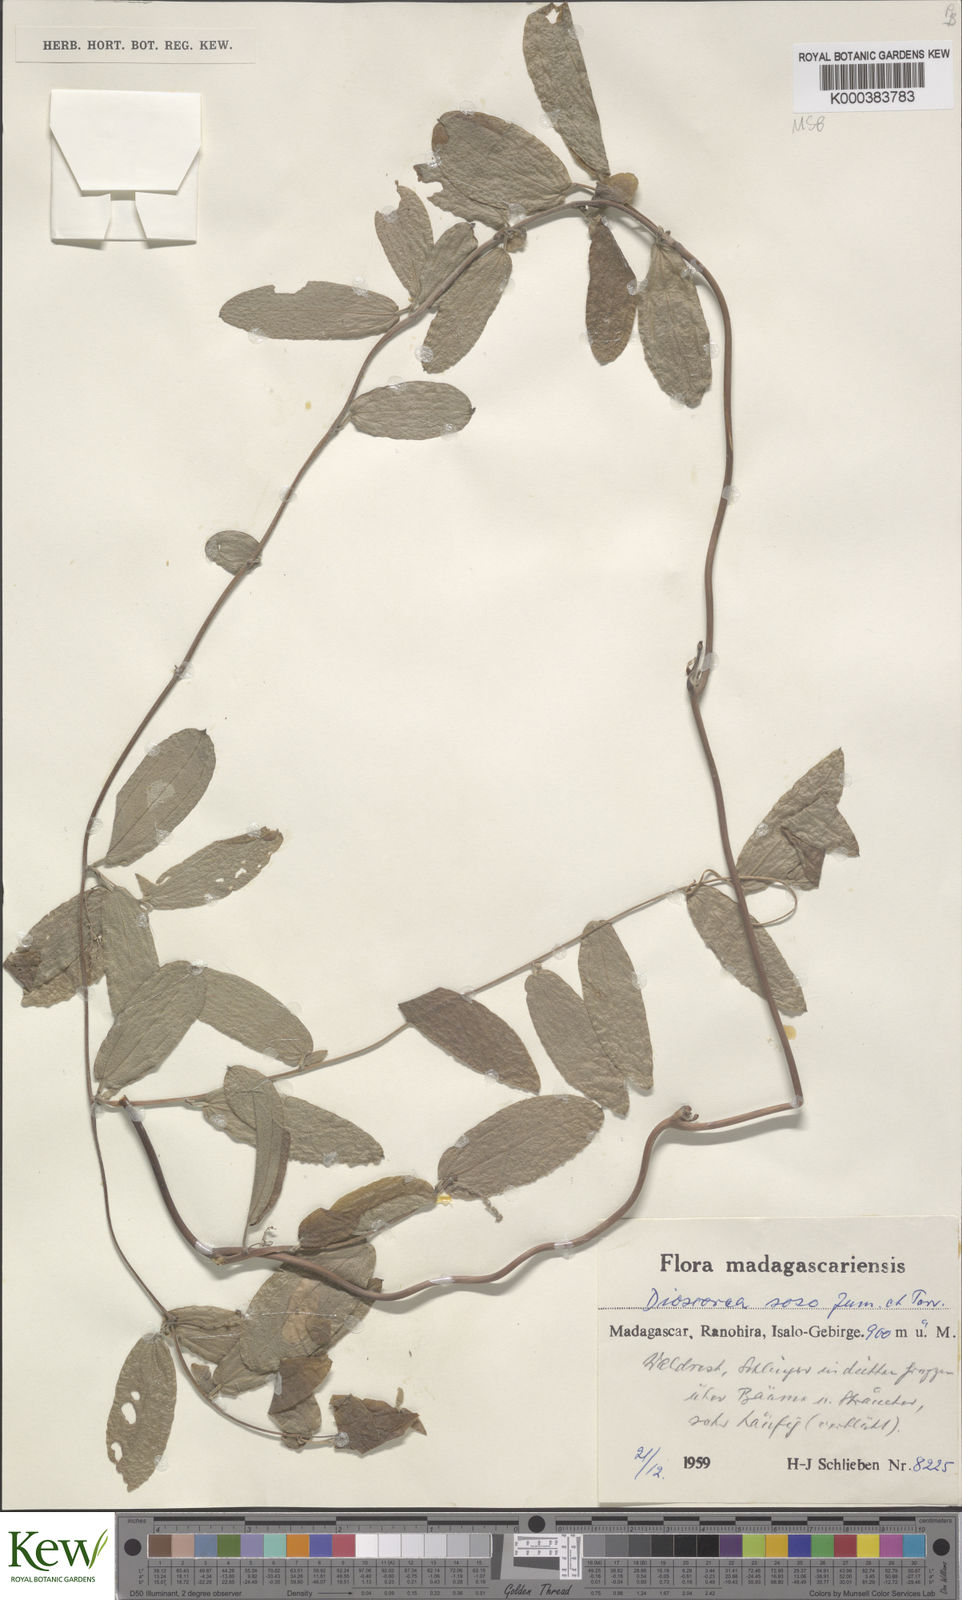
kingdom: Plantae
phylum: Tracheophyta
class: Liliopsida
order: Dioscoreales
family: Dioscoreaceae
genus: Dioscorea
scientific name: Dioscorea
